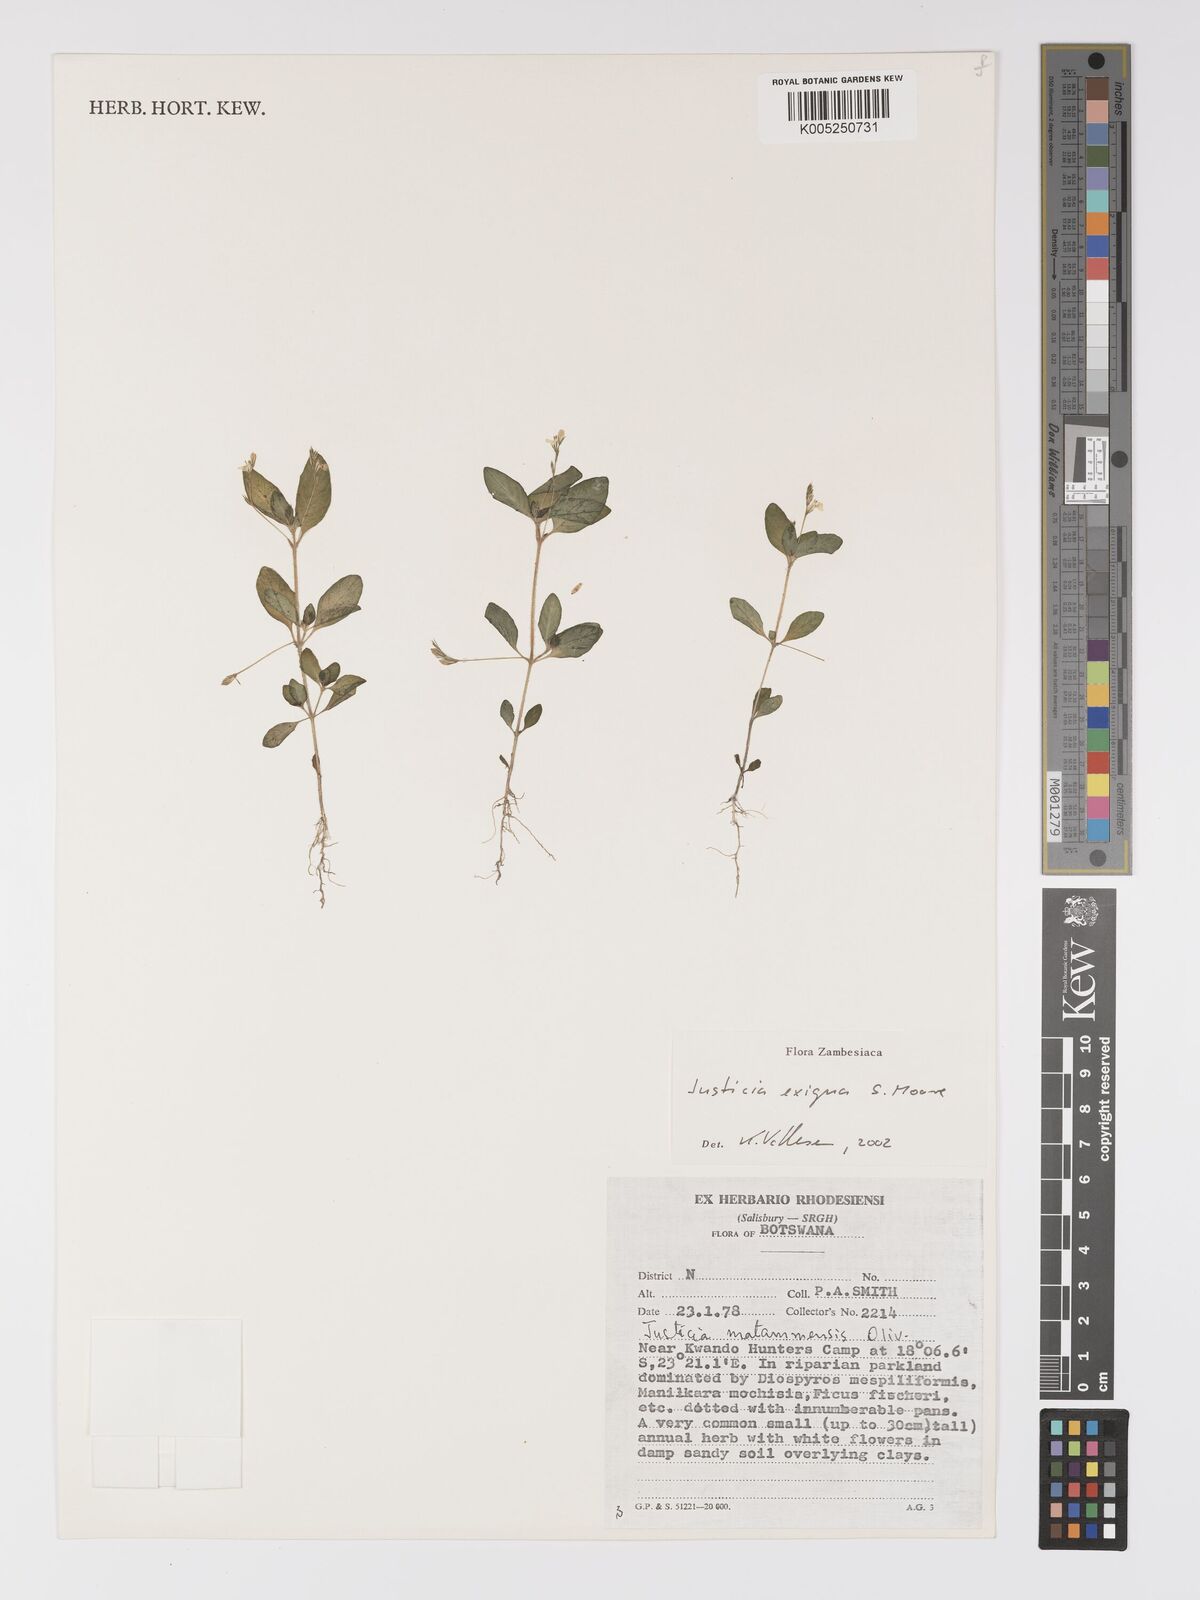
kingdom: Plantae
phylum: Tracheophyta
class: Magnoliopsida
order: Lamiales
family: Acanthaceae
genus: Justicia
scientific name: Justicia exigua
